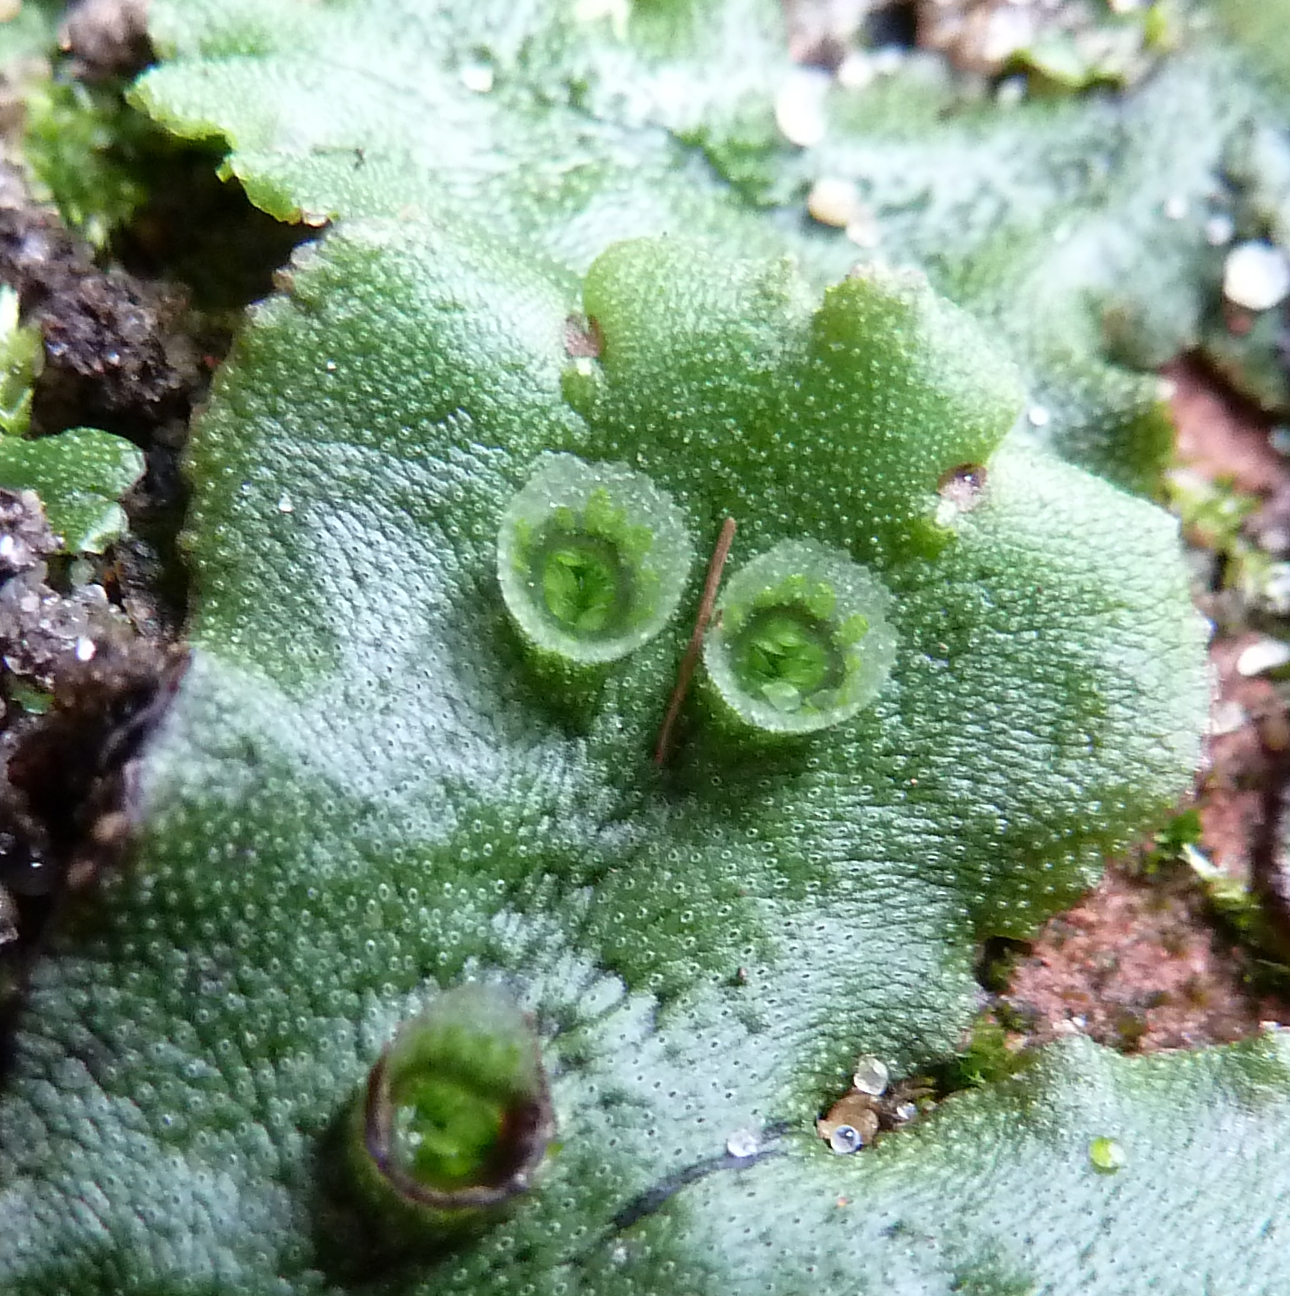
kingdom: Plantae
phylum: Marchantiophyta
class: Marchantiopsida
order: Marchantiales
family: Marchantiaceae
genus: Marchantia
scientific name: Marchantia polymorpha
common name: Common liverwort
